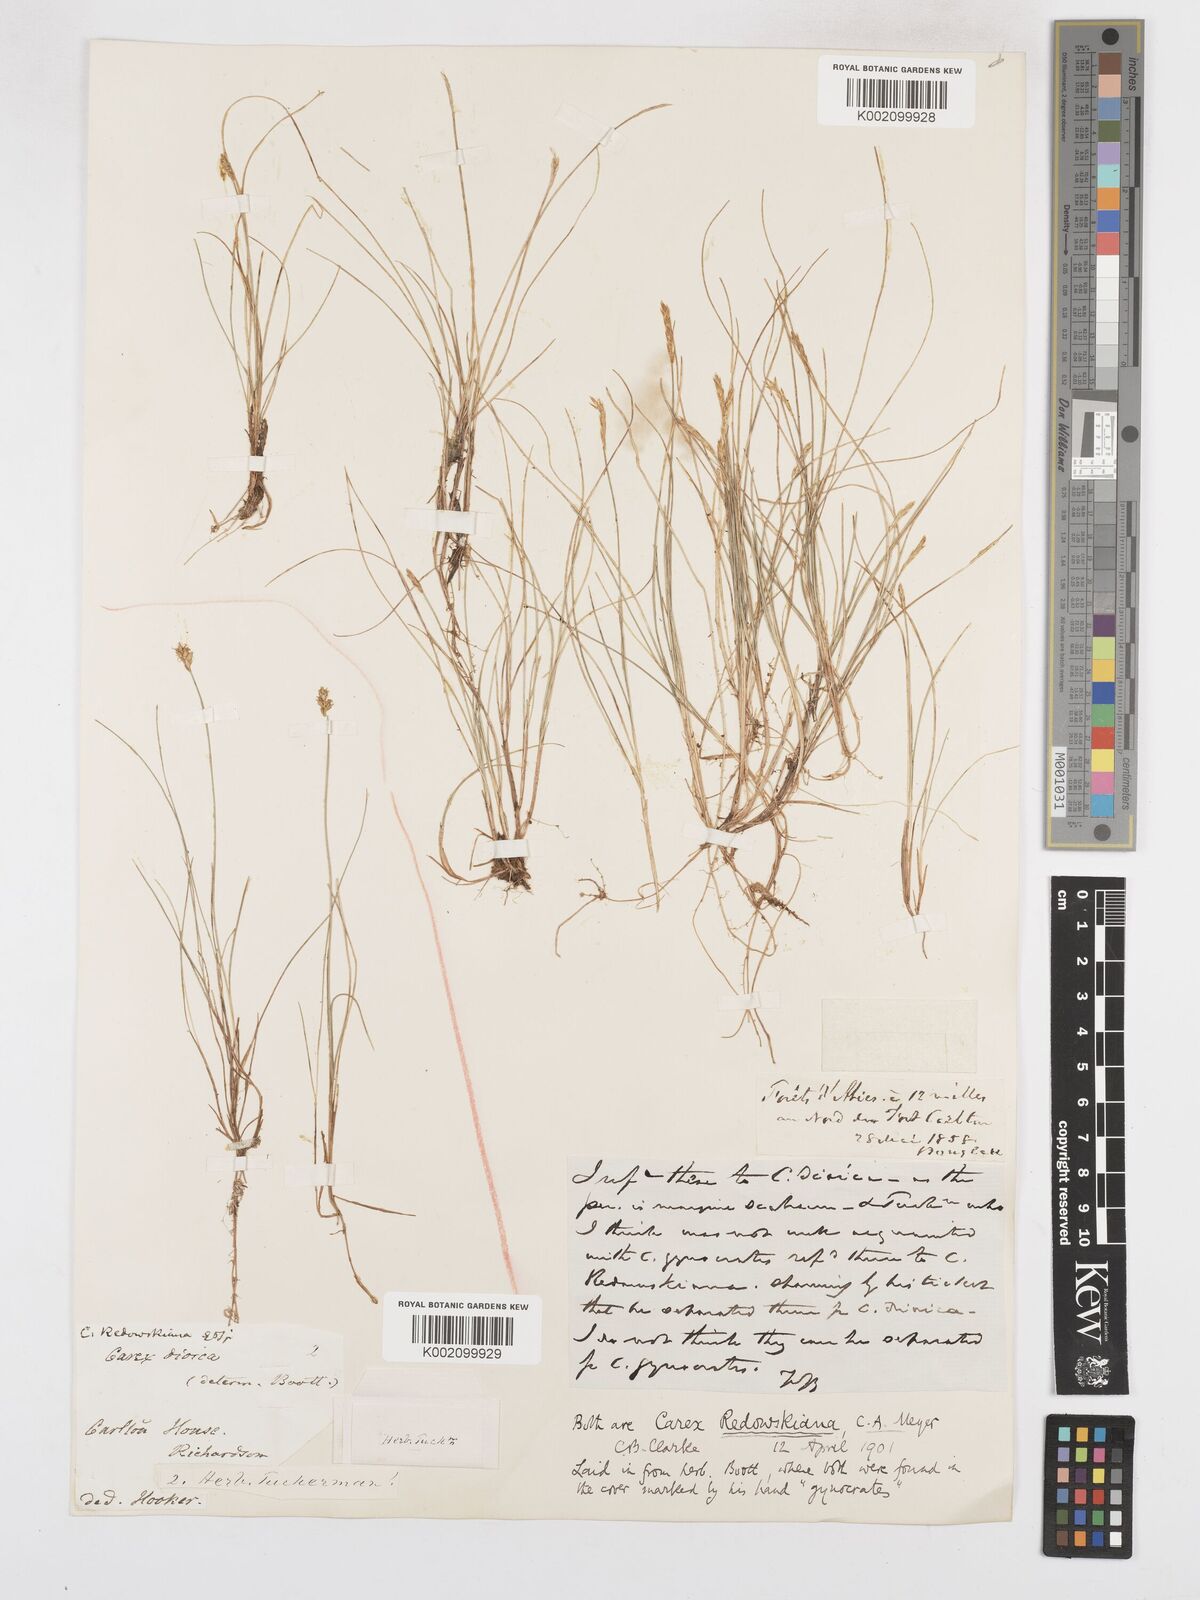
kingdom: Plantae
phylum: Tracheophyta
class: Liliopsida
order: Poales
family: Cyperaceae
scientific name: Cyperaceae
